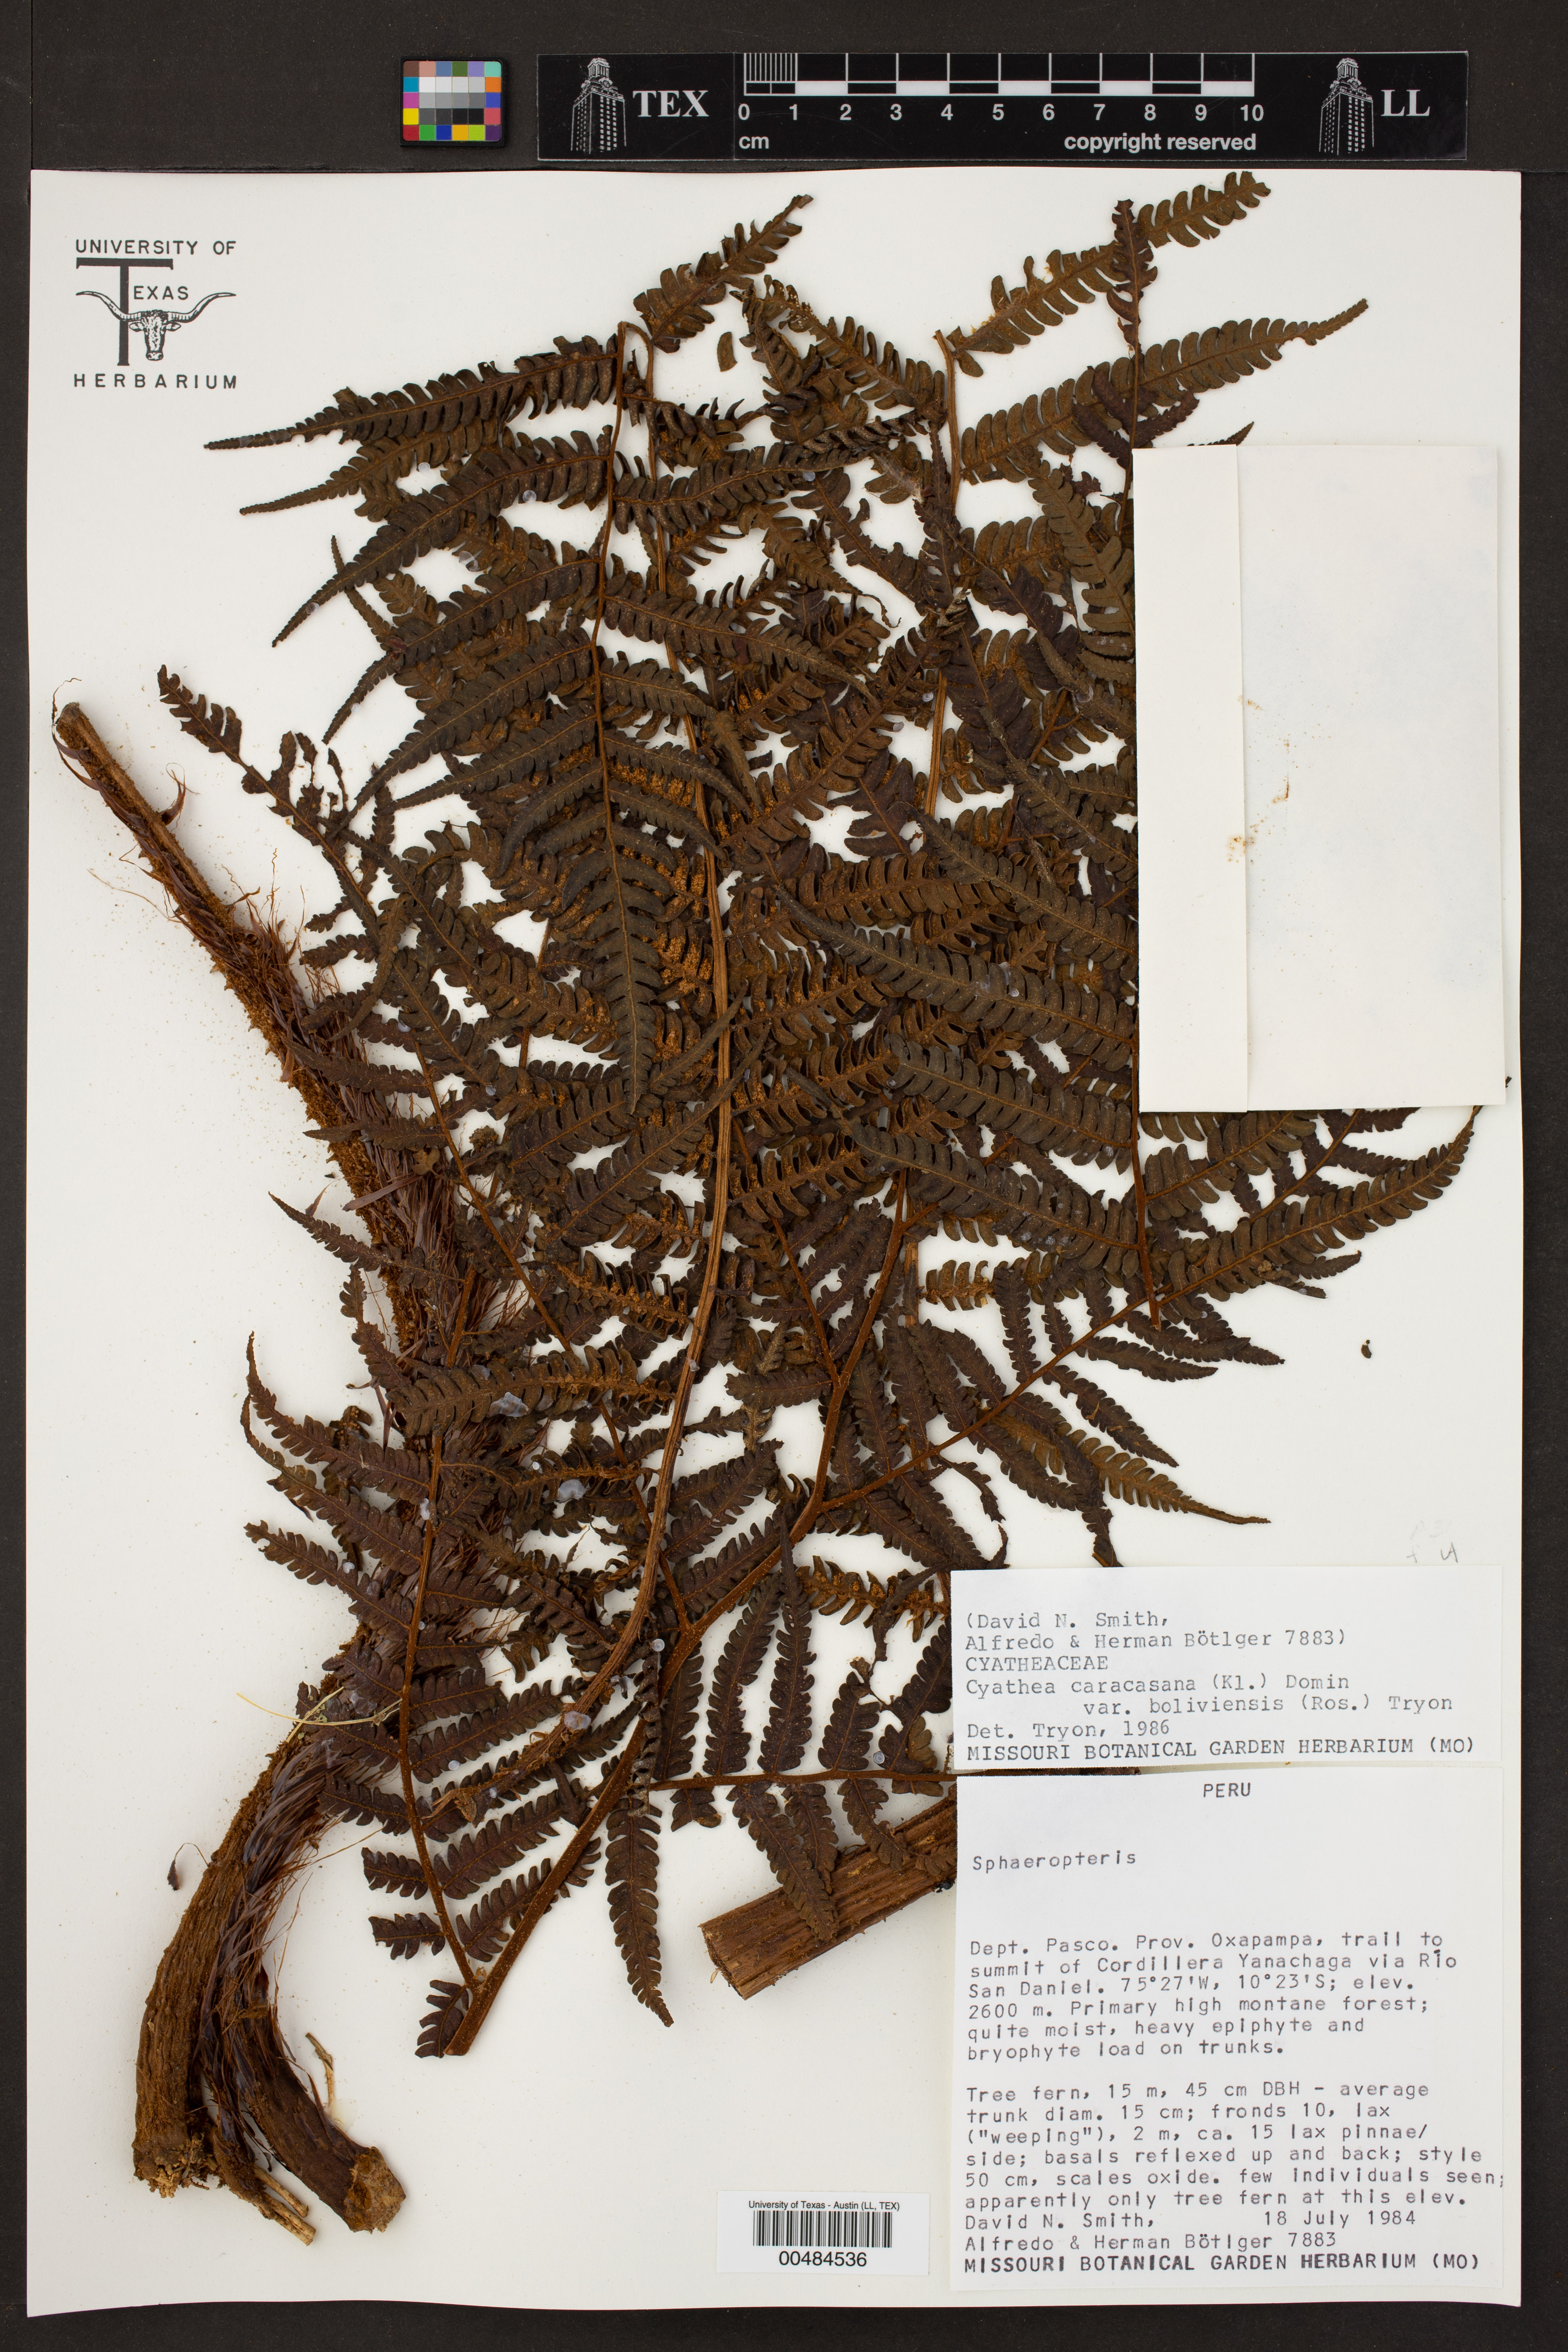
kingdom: Plantae
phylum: Tracheophyta
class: Polypodiopsida
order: Cyatheales
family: Cyatheaceae
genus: Cyathea
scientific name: Cyathea squamipes
